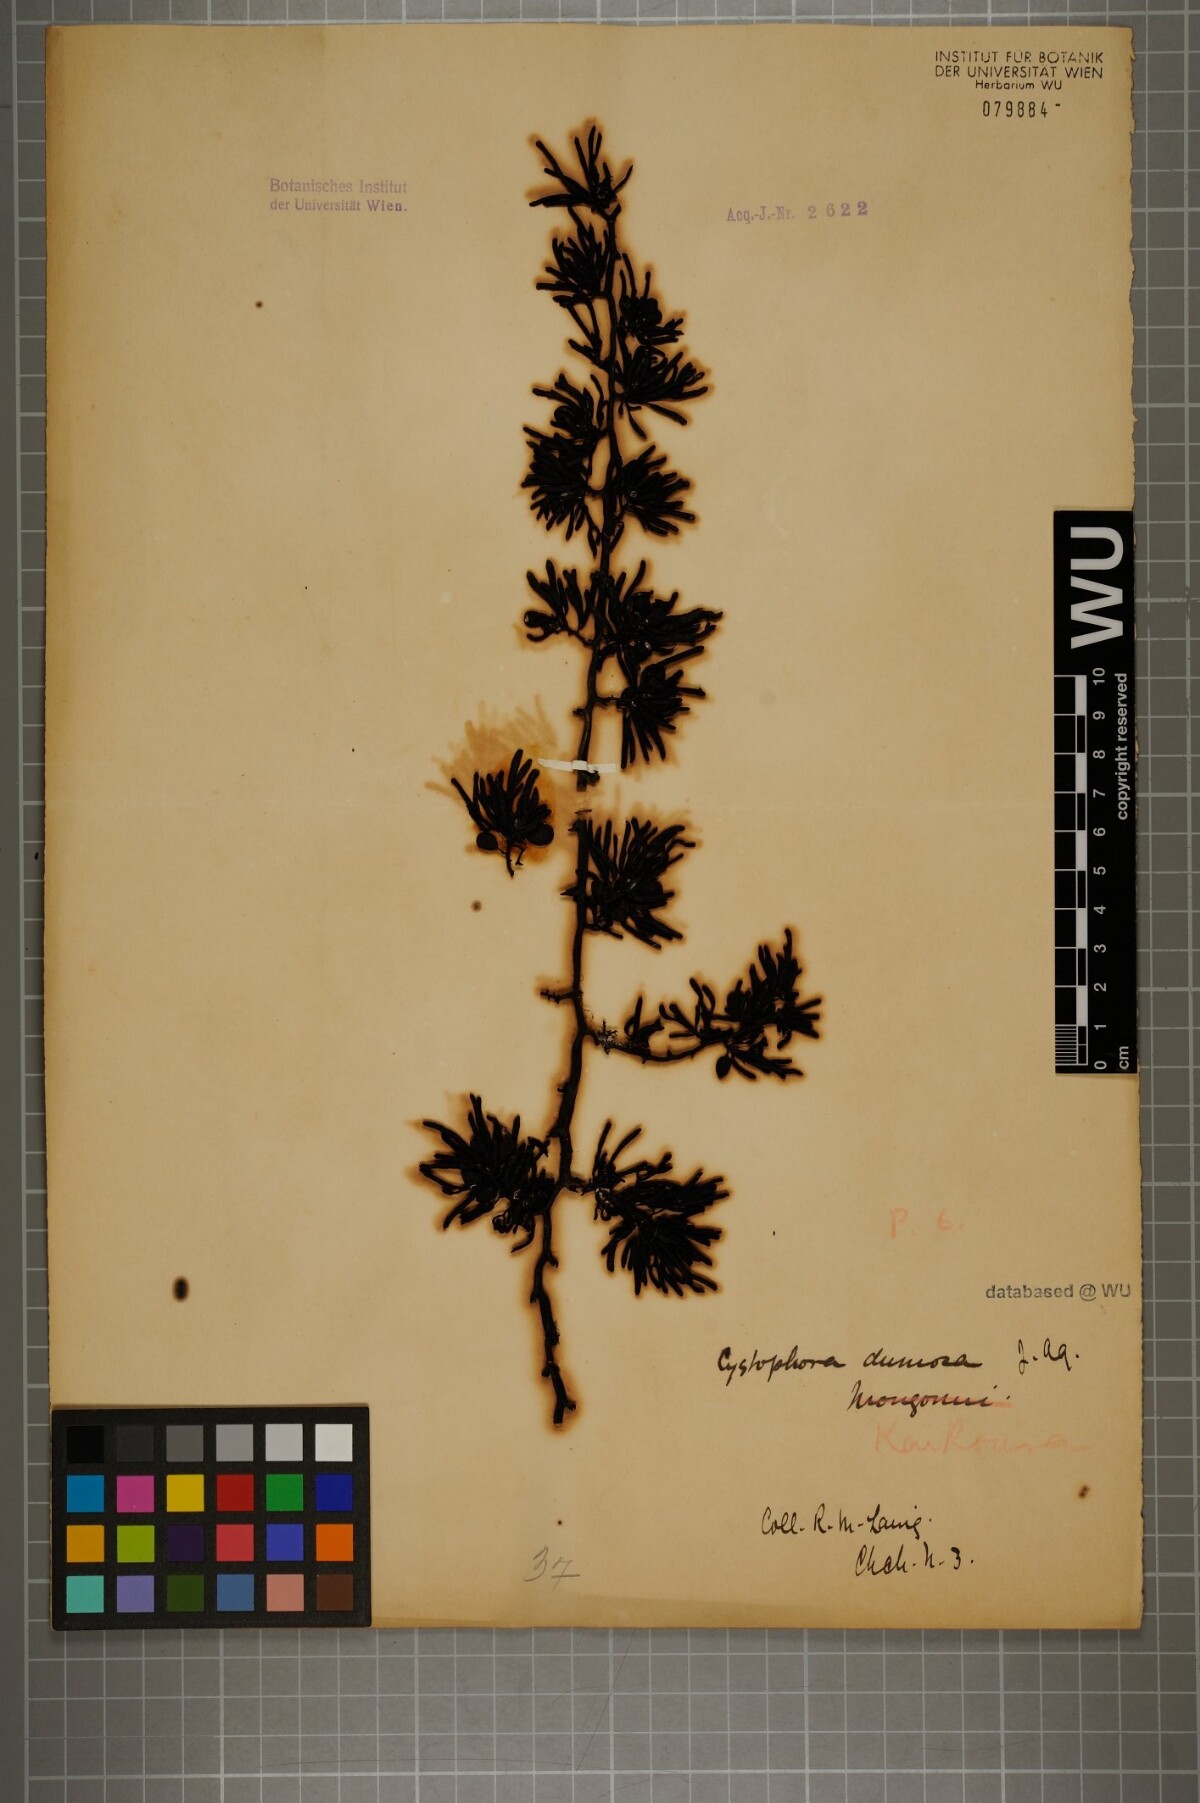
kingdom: Chromista
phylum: Ochrophyta
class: Phaeophyceae
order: Fucales
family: Sargassaceae
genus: Cystophora
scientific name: Cystophora
